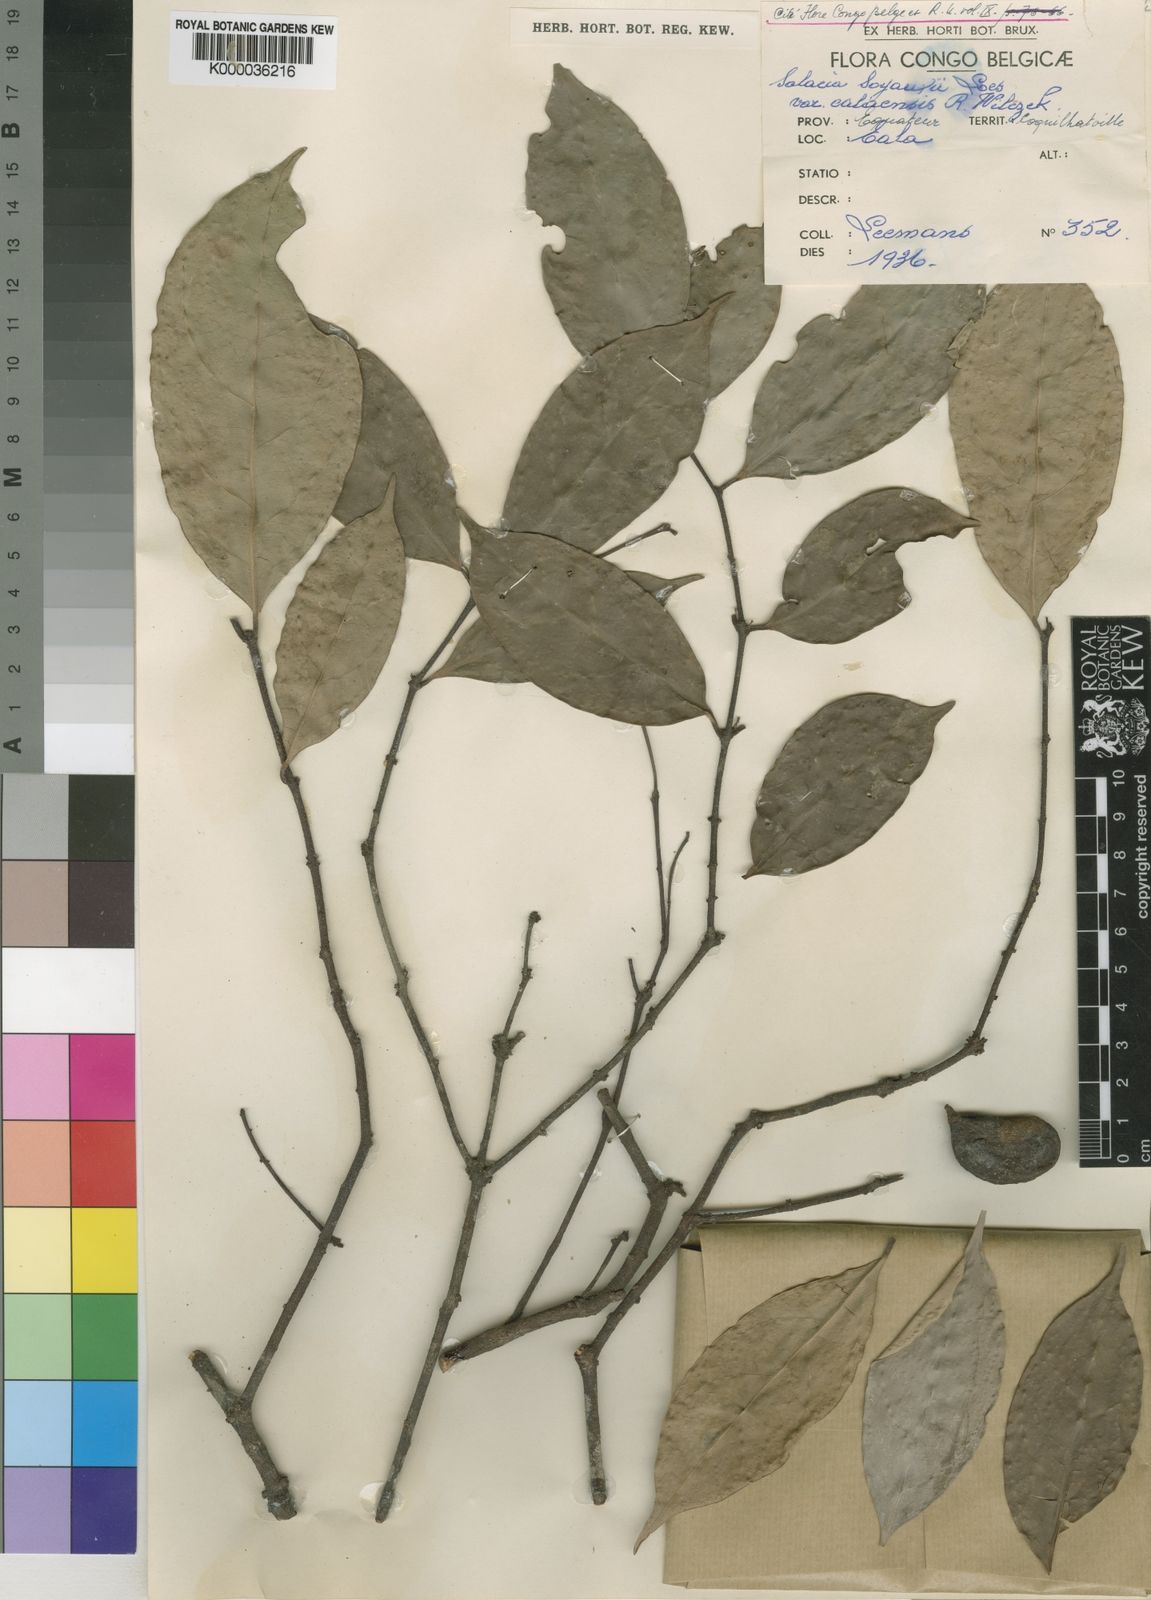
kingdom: Plantae
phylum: Tracheophyta
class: Magnoliopsida
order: Celastrales
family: Celastraceae
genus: Salacia
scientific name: Salacia mannii
